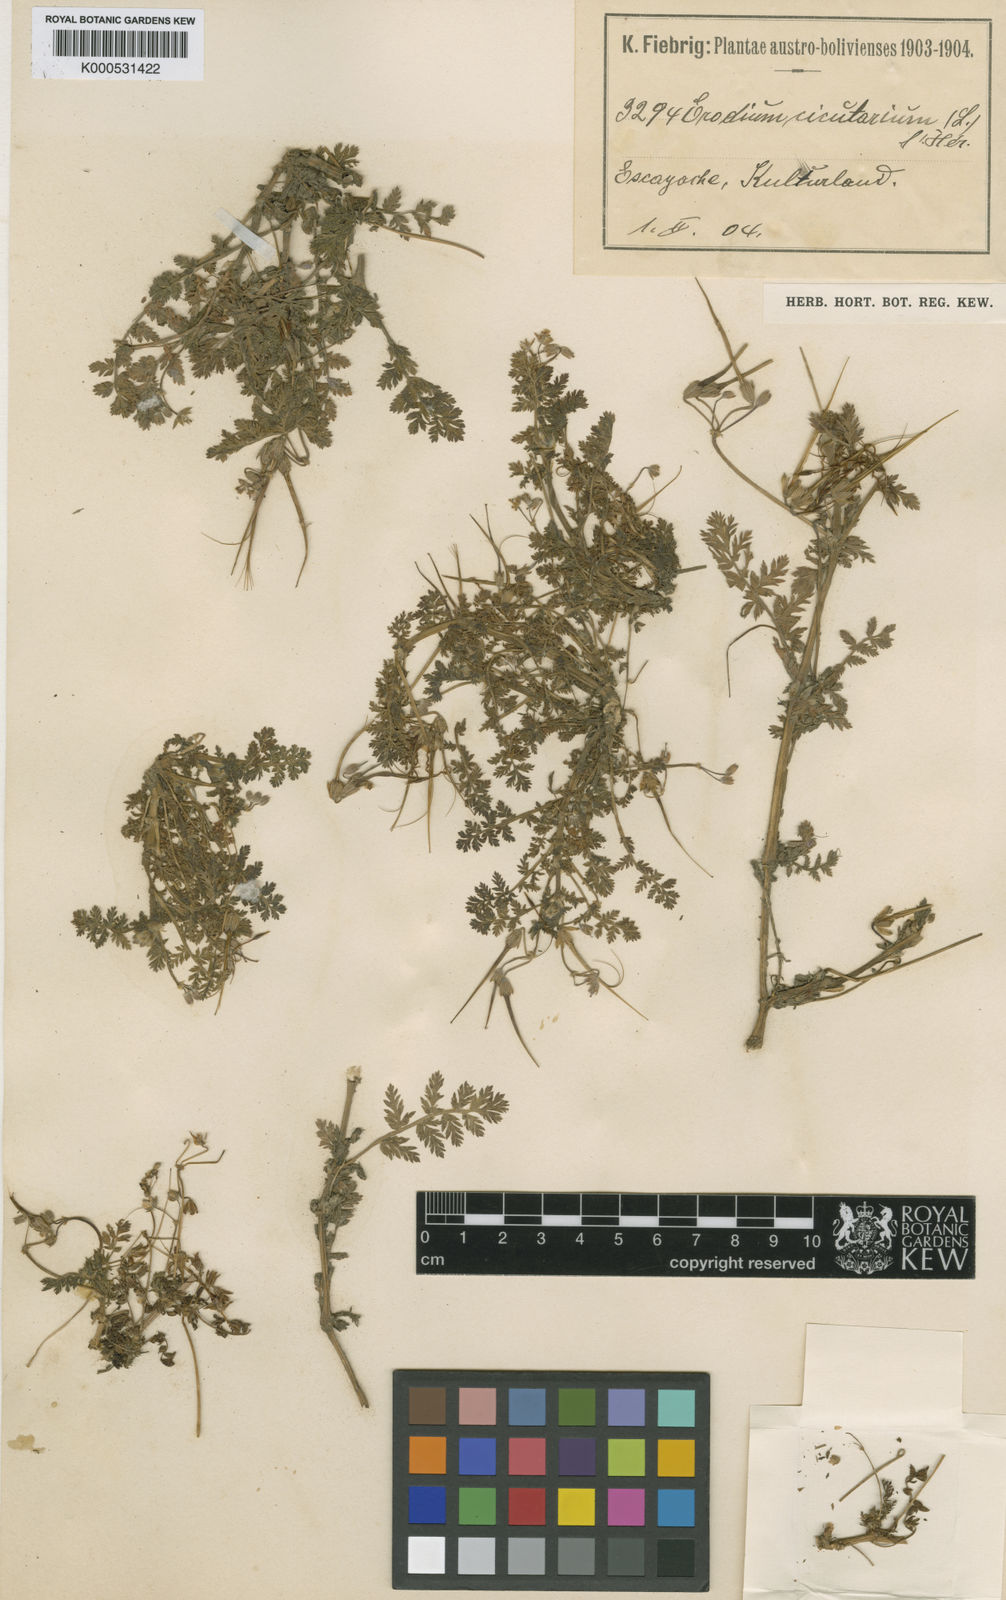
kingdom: Plantae
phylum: Tracheophyta
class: Magnoliopsida
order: Geraniales
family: Geraniaceae
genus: Erodium
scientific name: Erodium cicutarium
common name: Common stork's-bill
